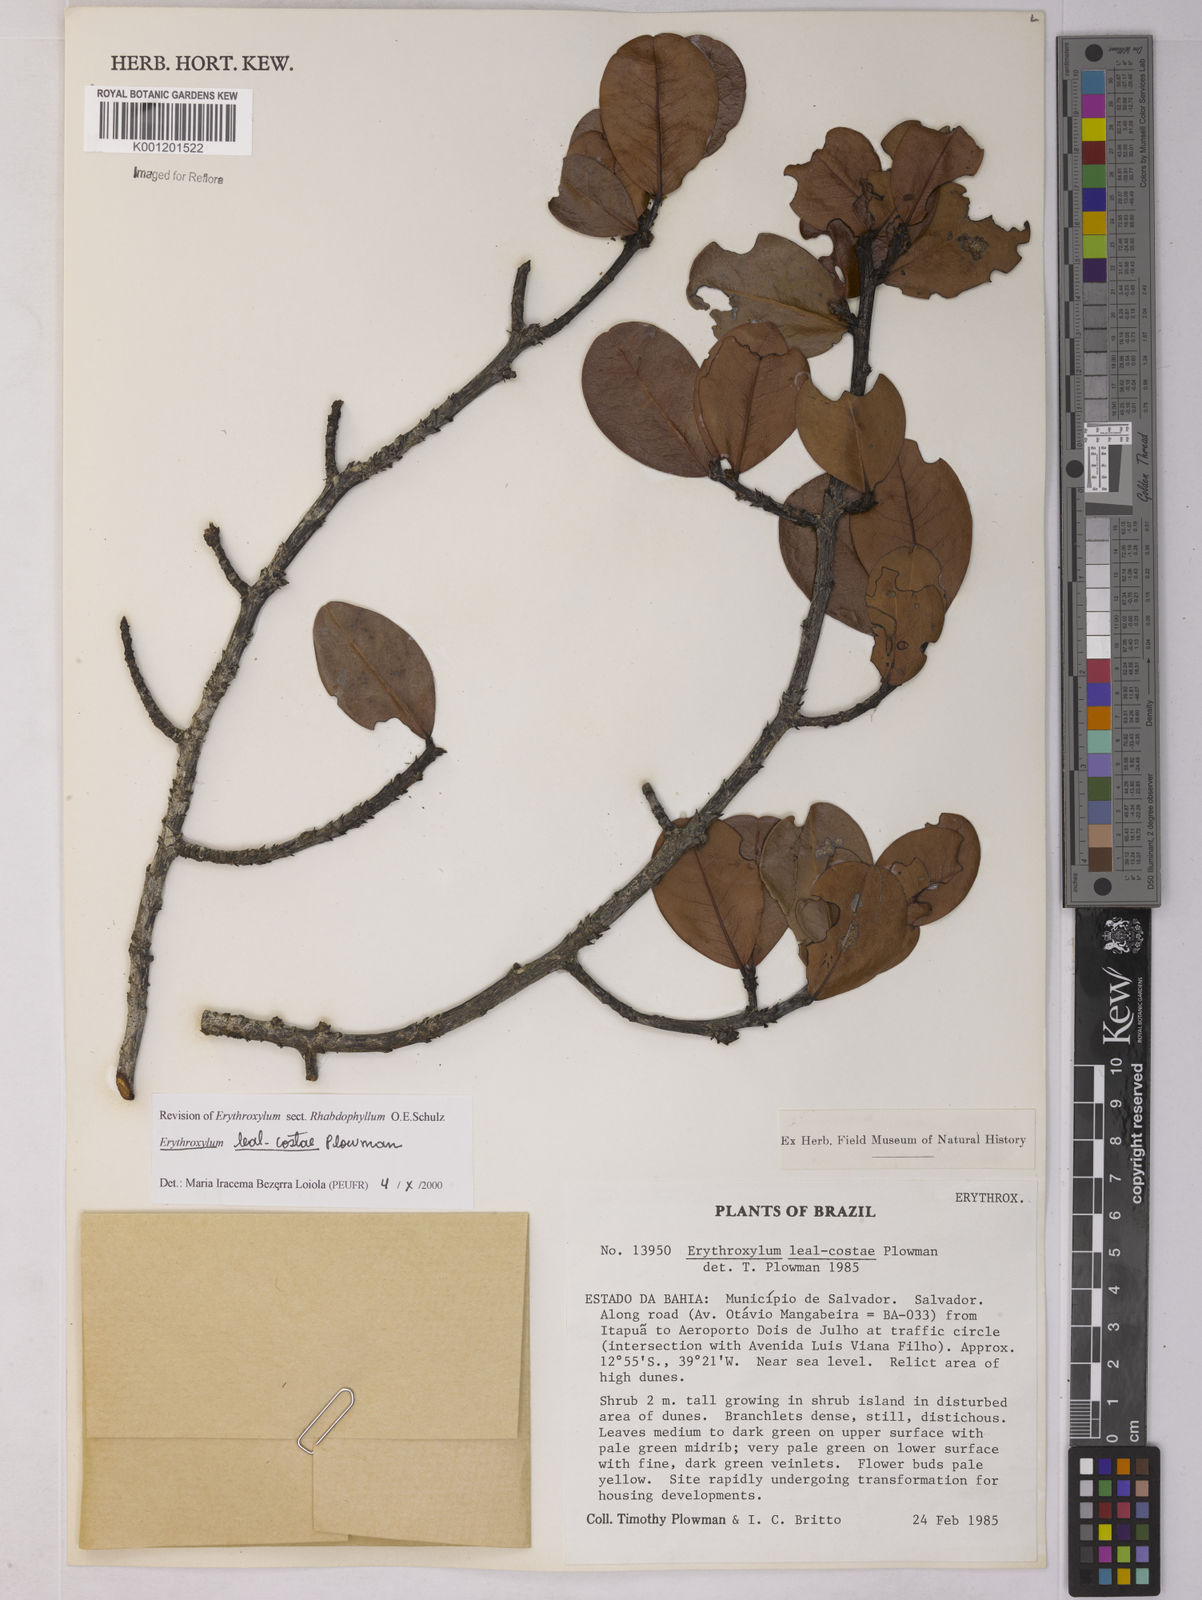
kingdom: Plantae
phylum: Tracheophyta
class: Magnoliopsida
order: Malpighiales
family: Erythroxylaceae
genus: Erythroxylum
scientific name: Erythroxylum leal-costae
